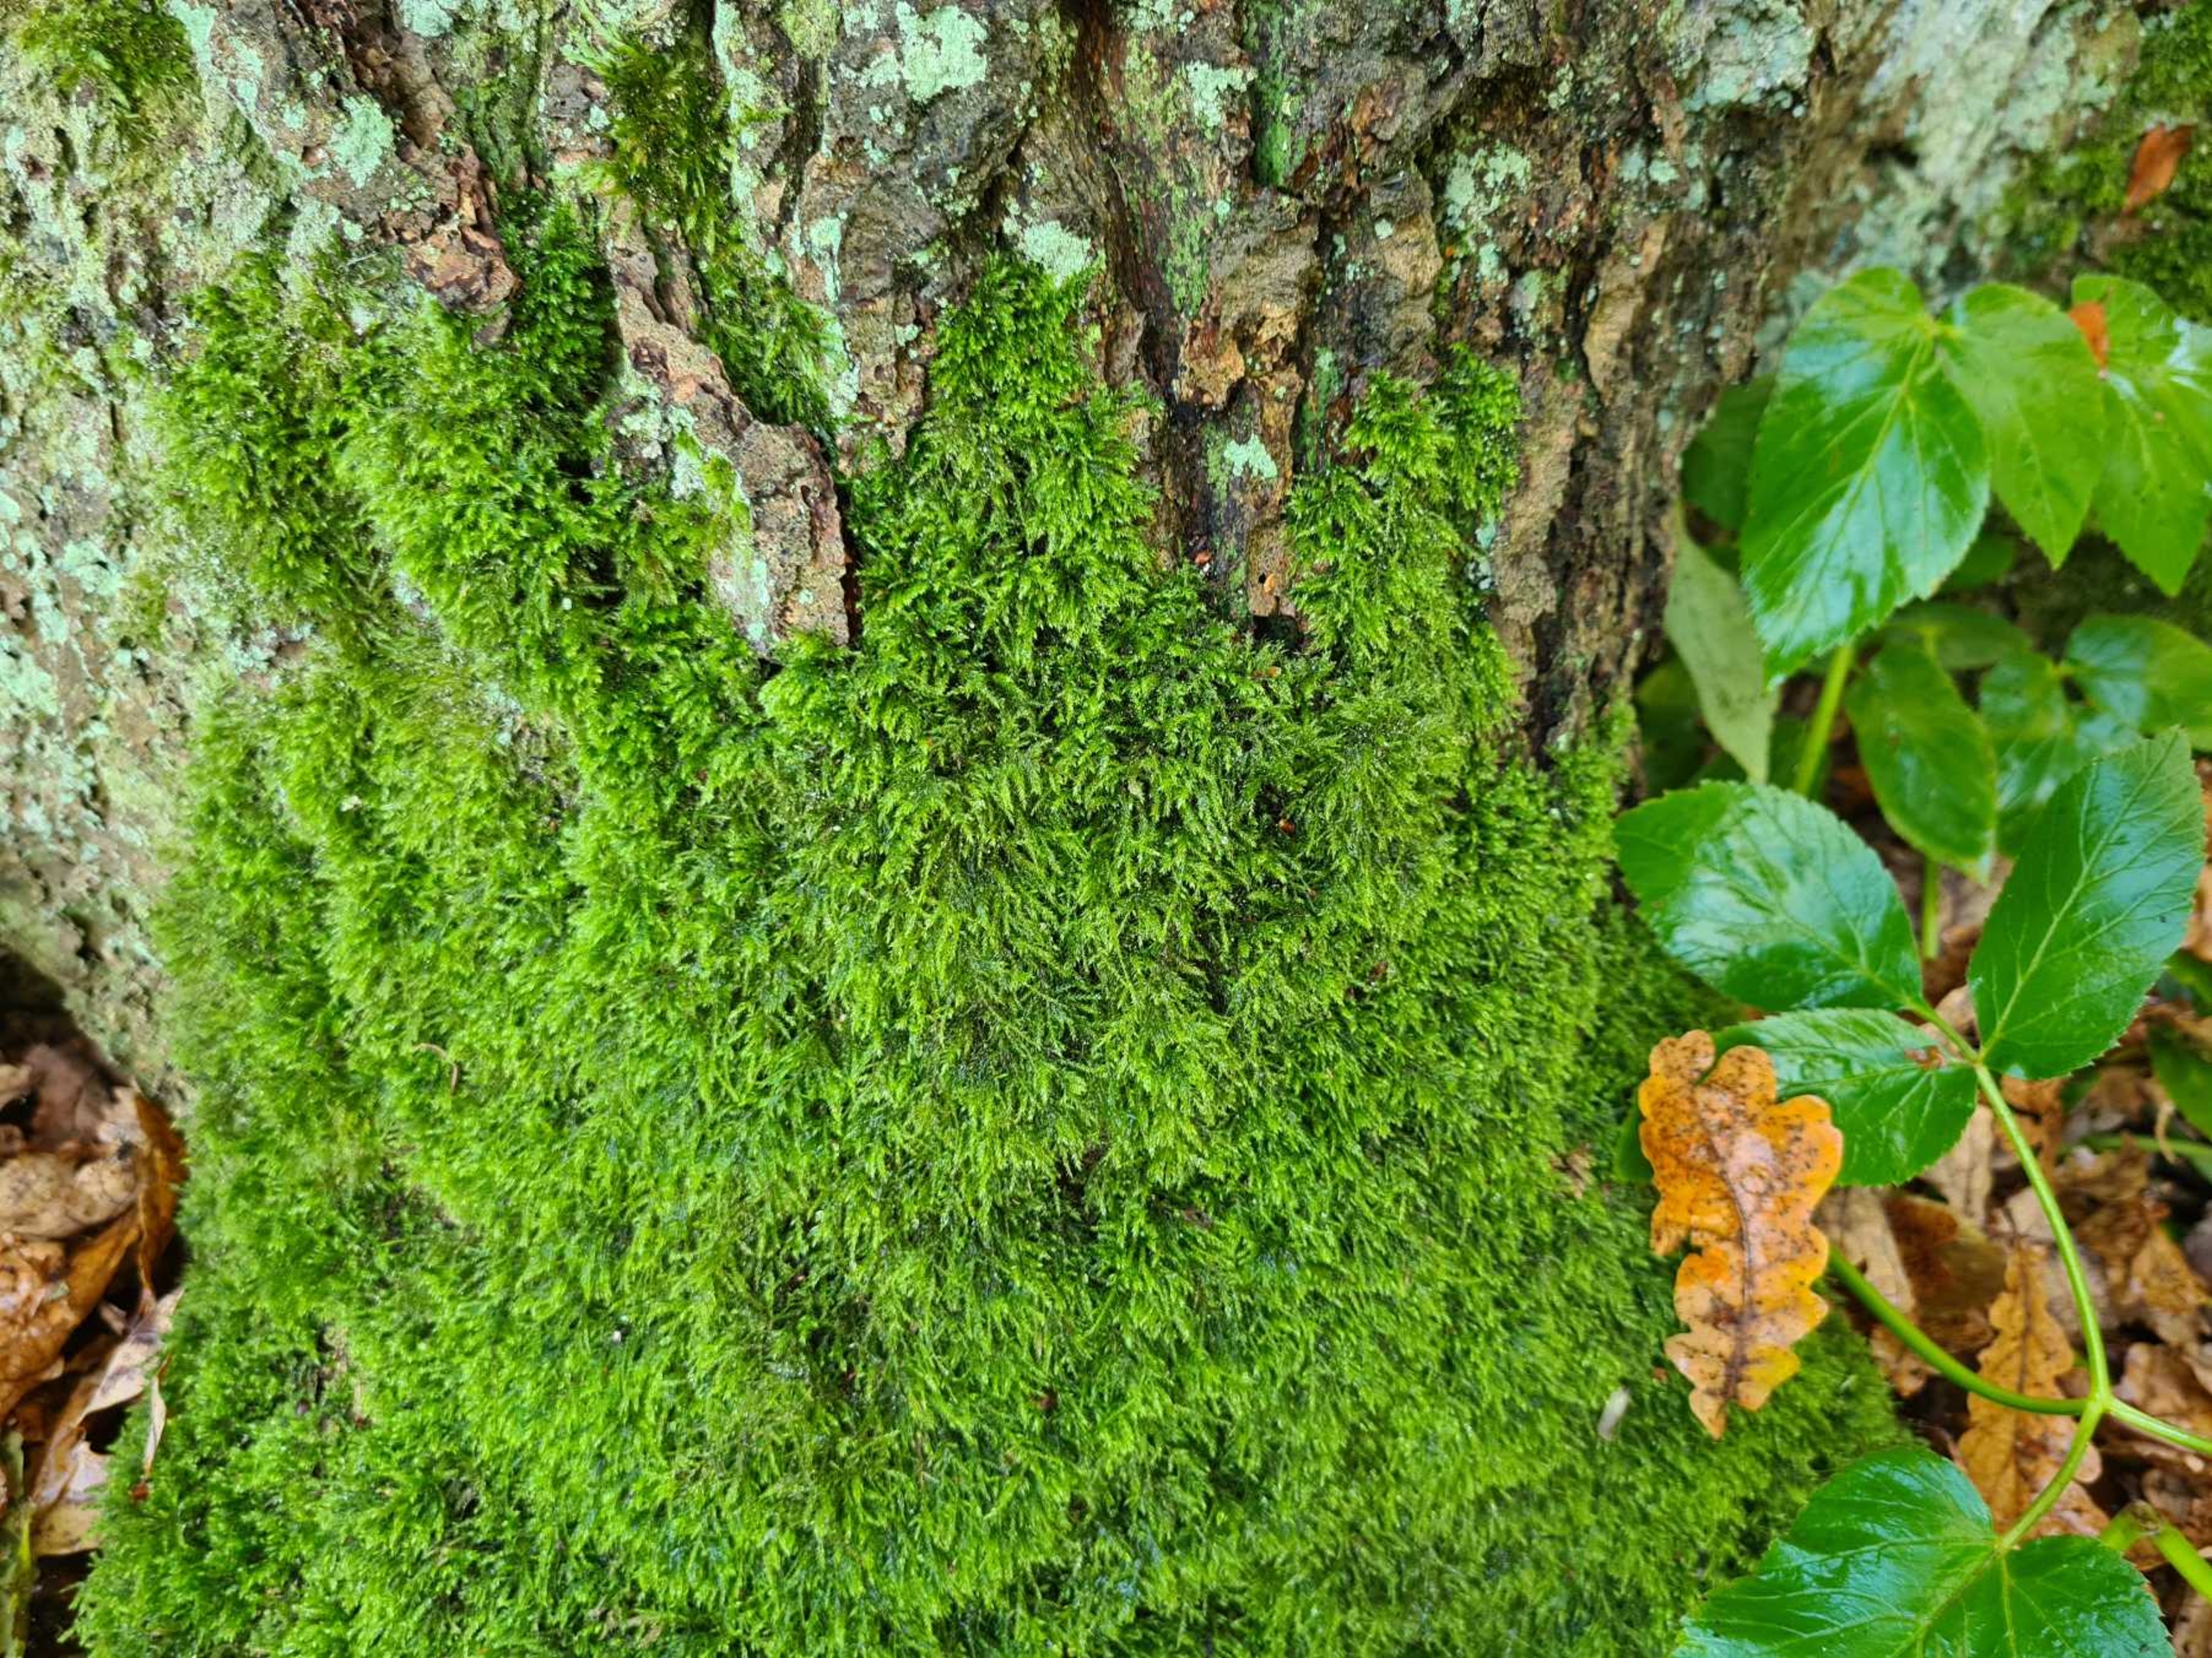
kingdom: Plantae
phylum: Bryophyta
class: Bryopsida
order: Hypnales
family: Lembophyllaceae
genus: Pseudisothecium
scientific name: Pseudisothecium myosuroides
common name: Slank stammemos
